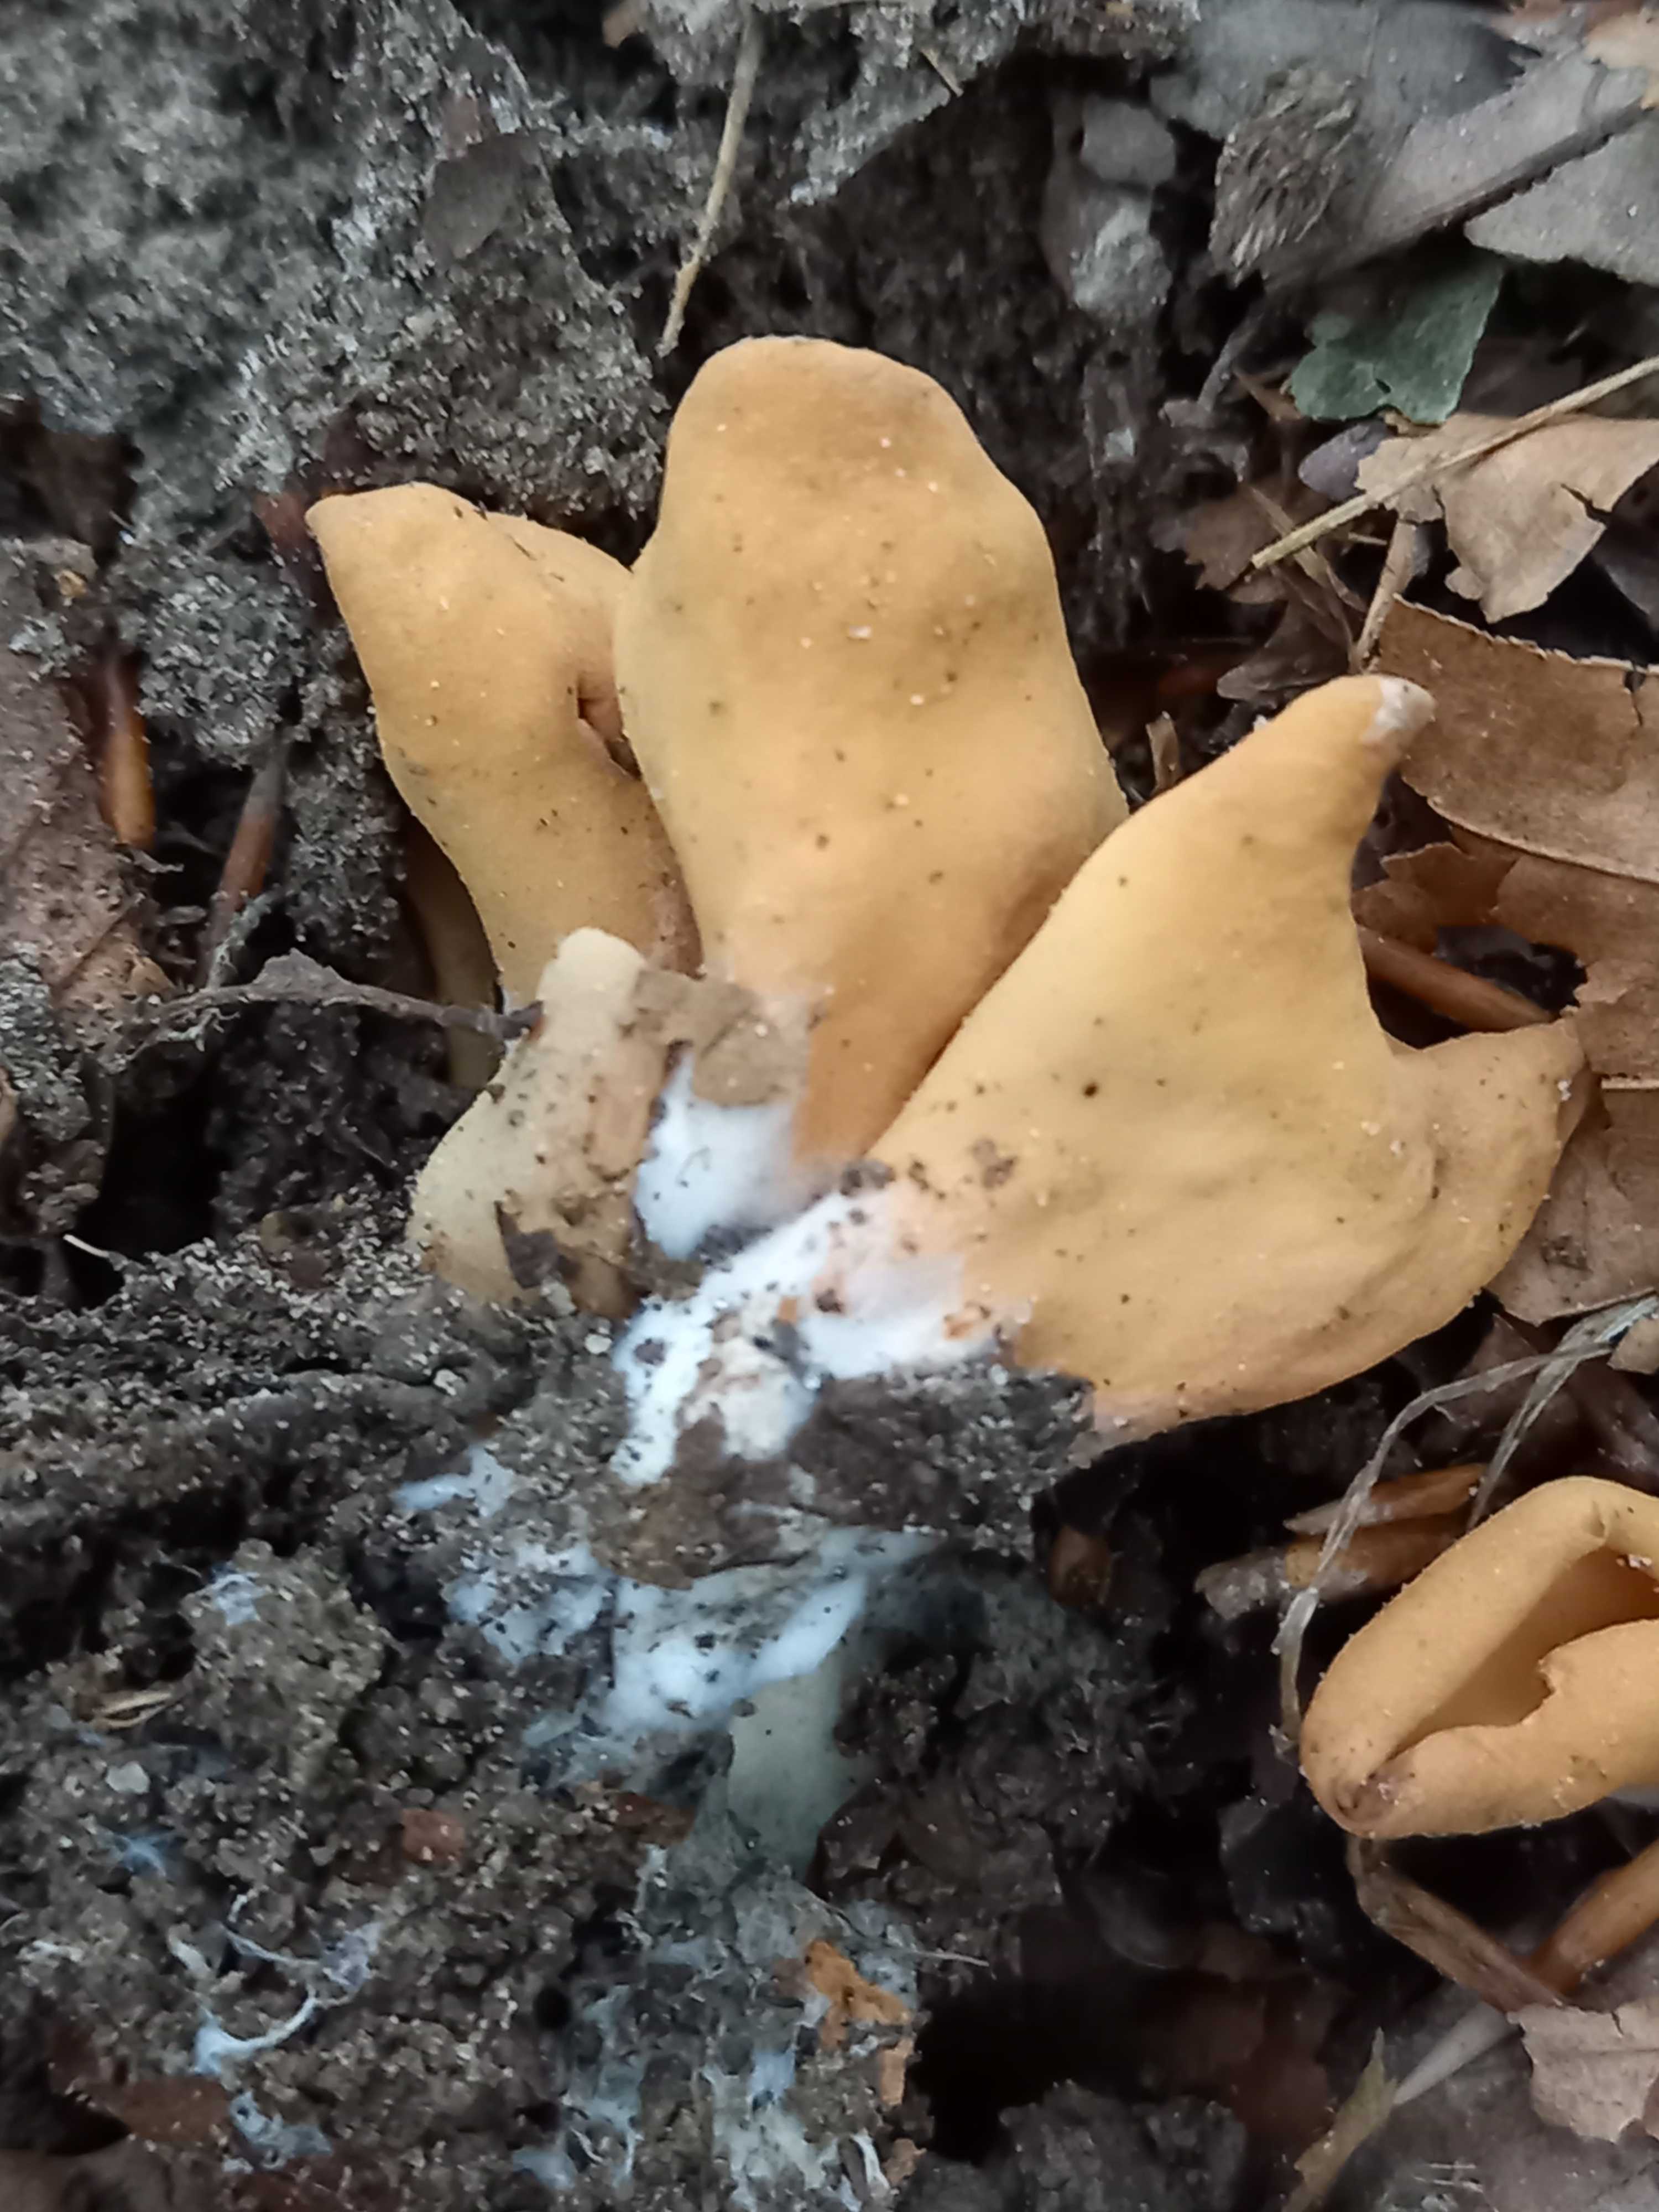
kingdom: Fungi
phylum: Ascomycota
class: Pezizomycetes
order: Pezizales
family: Otideaceae
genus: Otidea
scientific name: Otidea onotica
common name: æsel-ørebæger
